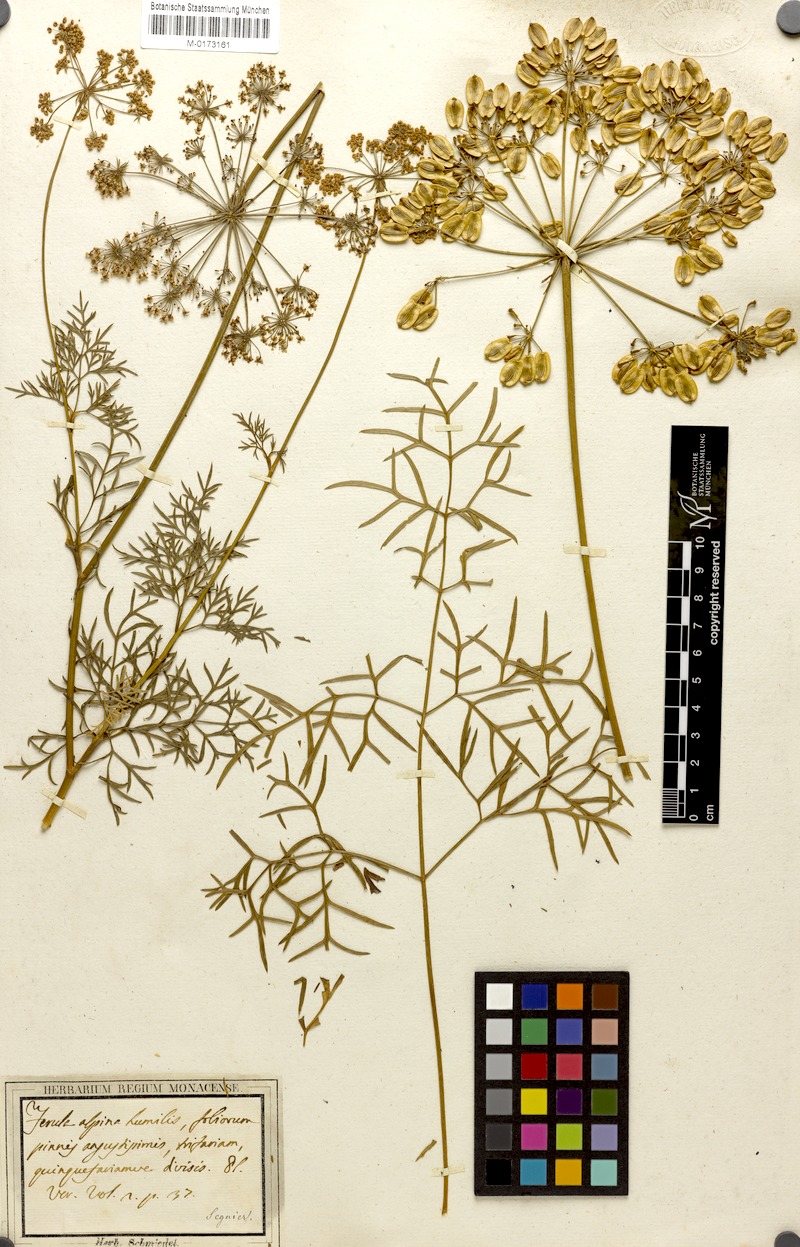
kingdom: Plantae
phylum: Tracheophyta
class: Magnoliopsida
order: Apiales
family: Apiaceae
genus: Peucedanum
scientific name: Peucedanum austriacum
